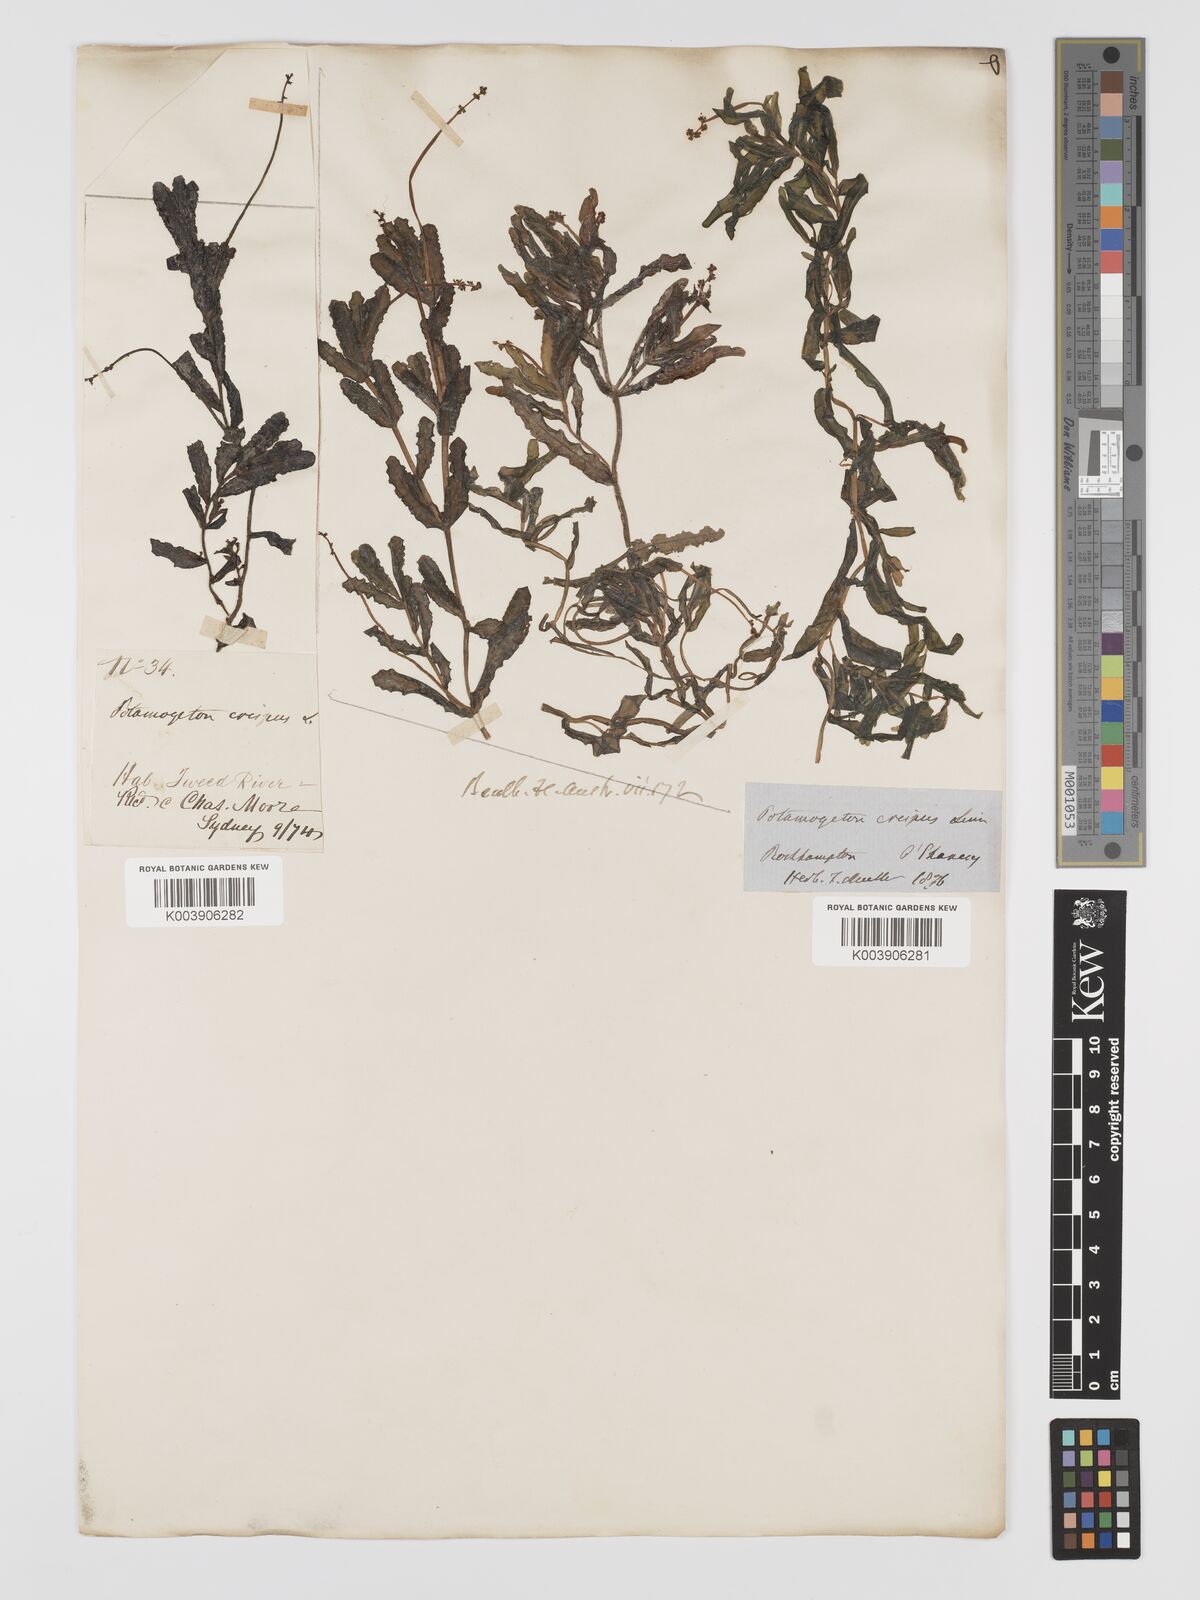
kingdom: Plantae
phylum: Tracheophyta
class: Liliopsida
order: Alismatales
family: Potamogetonaceae
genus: Potamogeton
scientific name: Potamogeton crispus
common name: Curled pondweed
